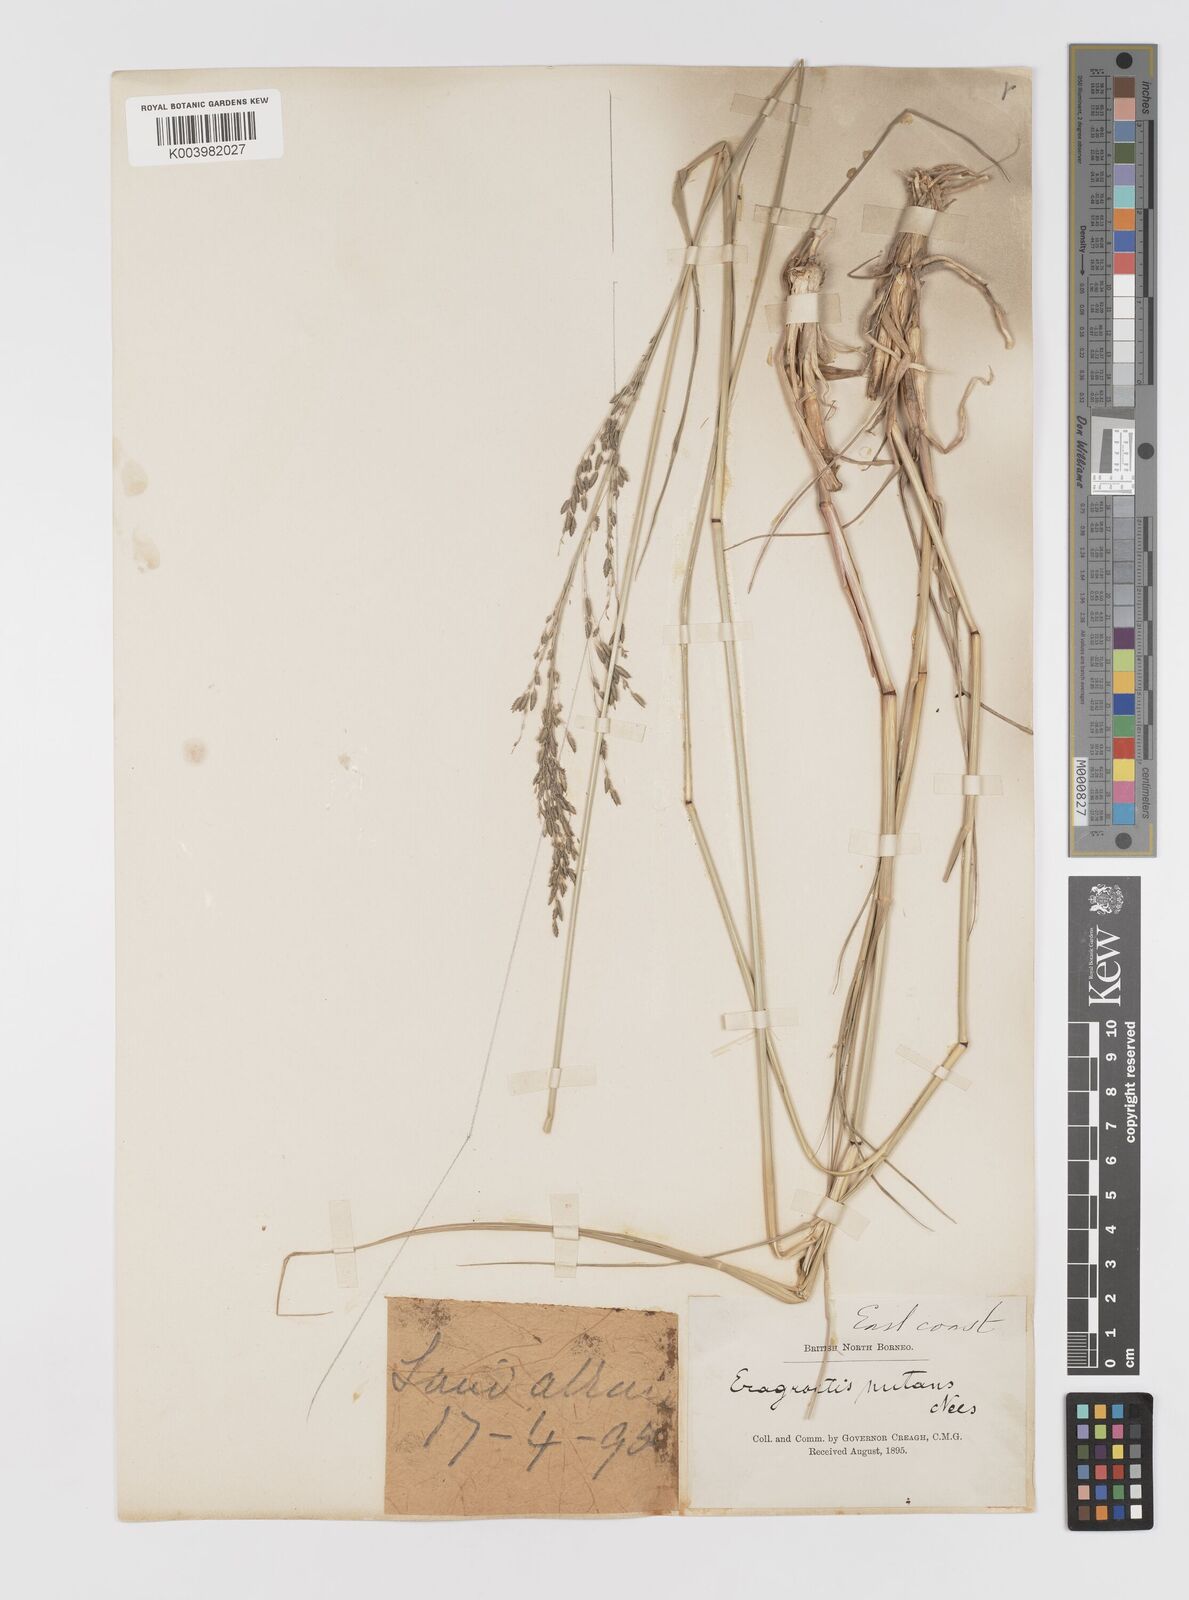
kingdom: Plantae
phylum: Tracheophyta
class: Liliopsida
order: Poales
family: Poaceae
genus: Eragrostis
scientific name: Eragrostis atrovirens
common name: Thalia lovegrass
